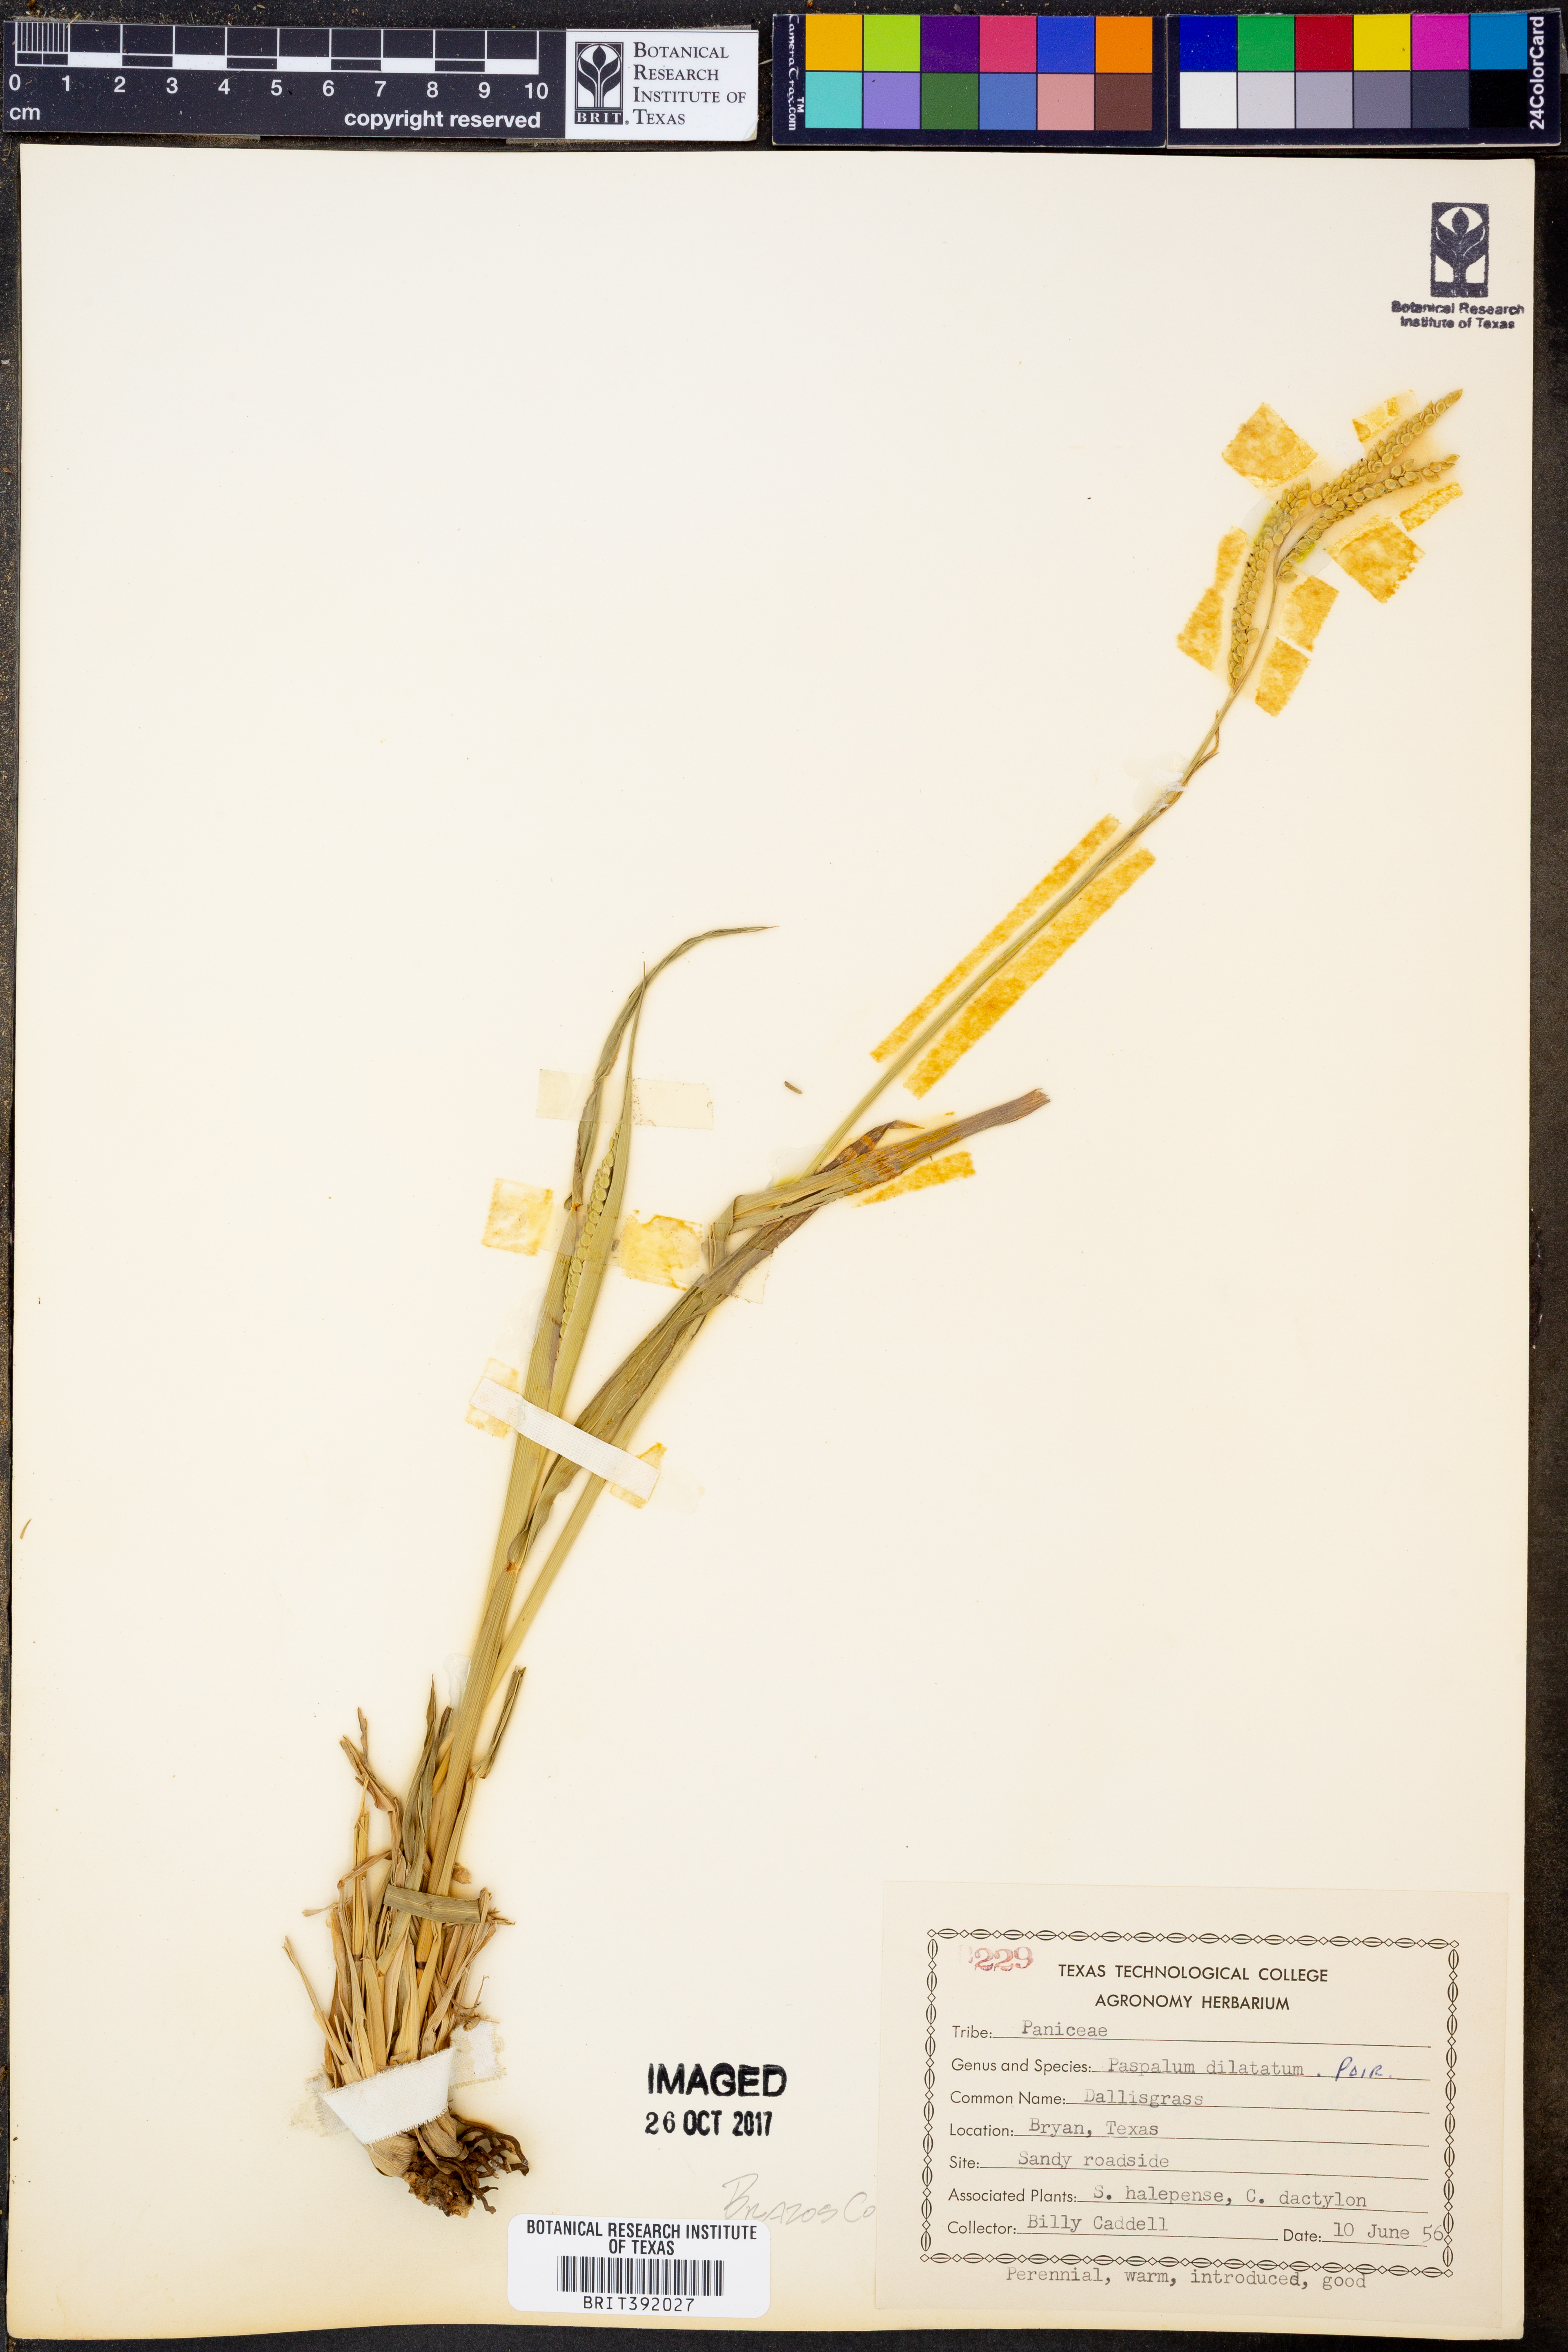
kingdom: Plantae
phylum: Tracheophyta
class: Liliopsida
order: Poales
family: Poaceae
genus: Paspalum
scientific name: Paspalum dilatatum
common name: Dallisgrass
